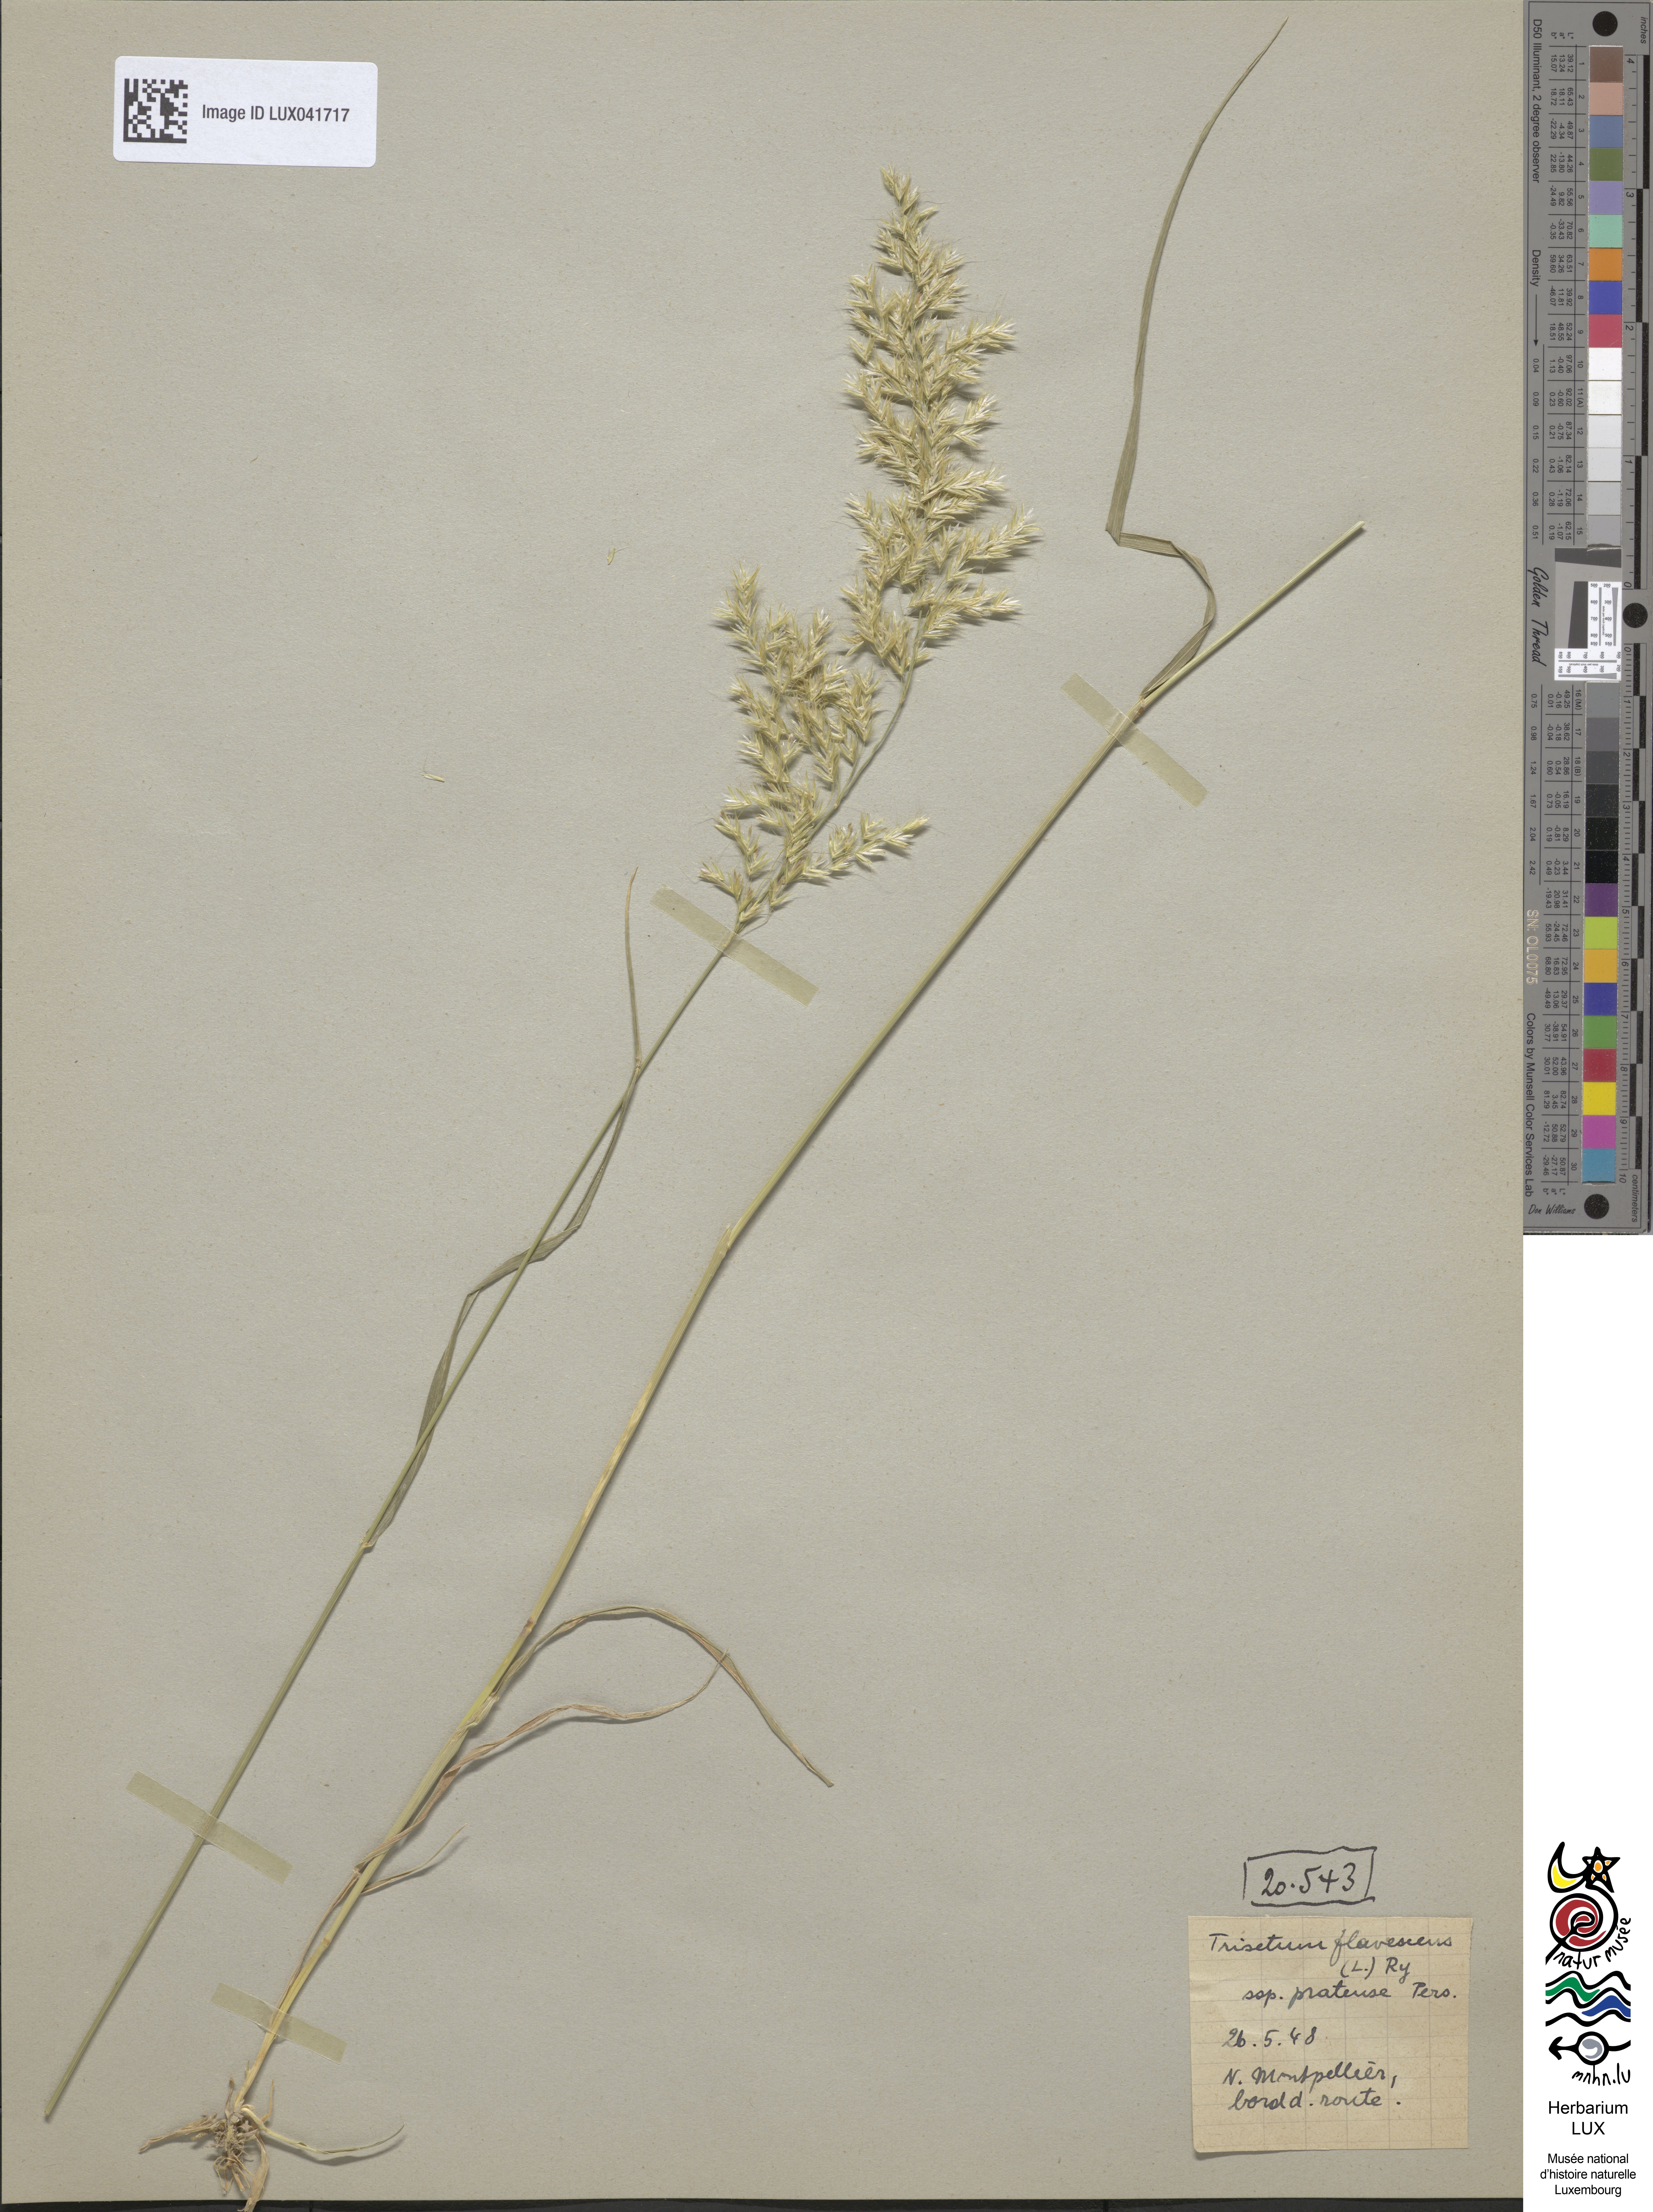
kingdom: Plantae
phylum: Tracheophyta
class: Liliopsida
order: Poales
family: Poaceae
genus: Trisetum
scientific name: Trisetum flavescens
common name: Yellow oat-grass
